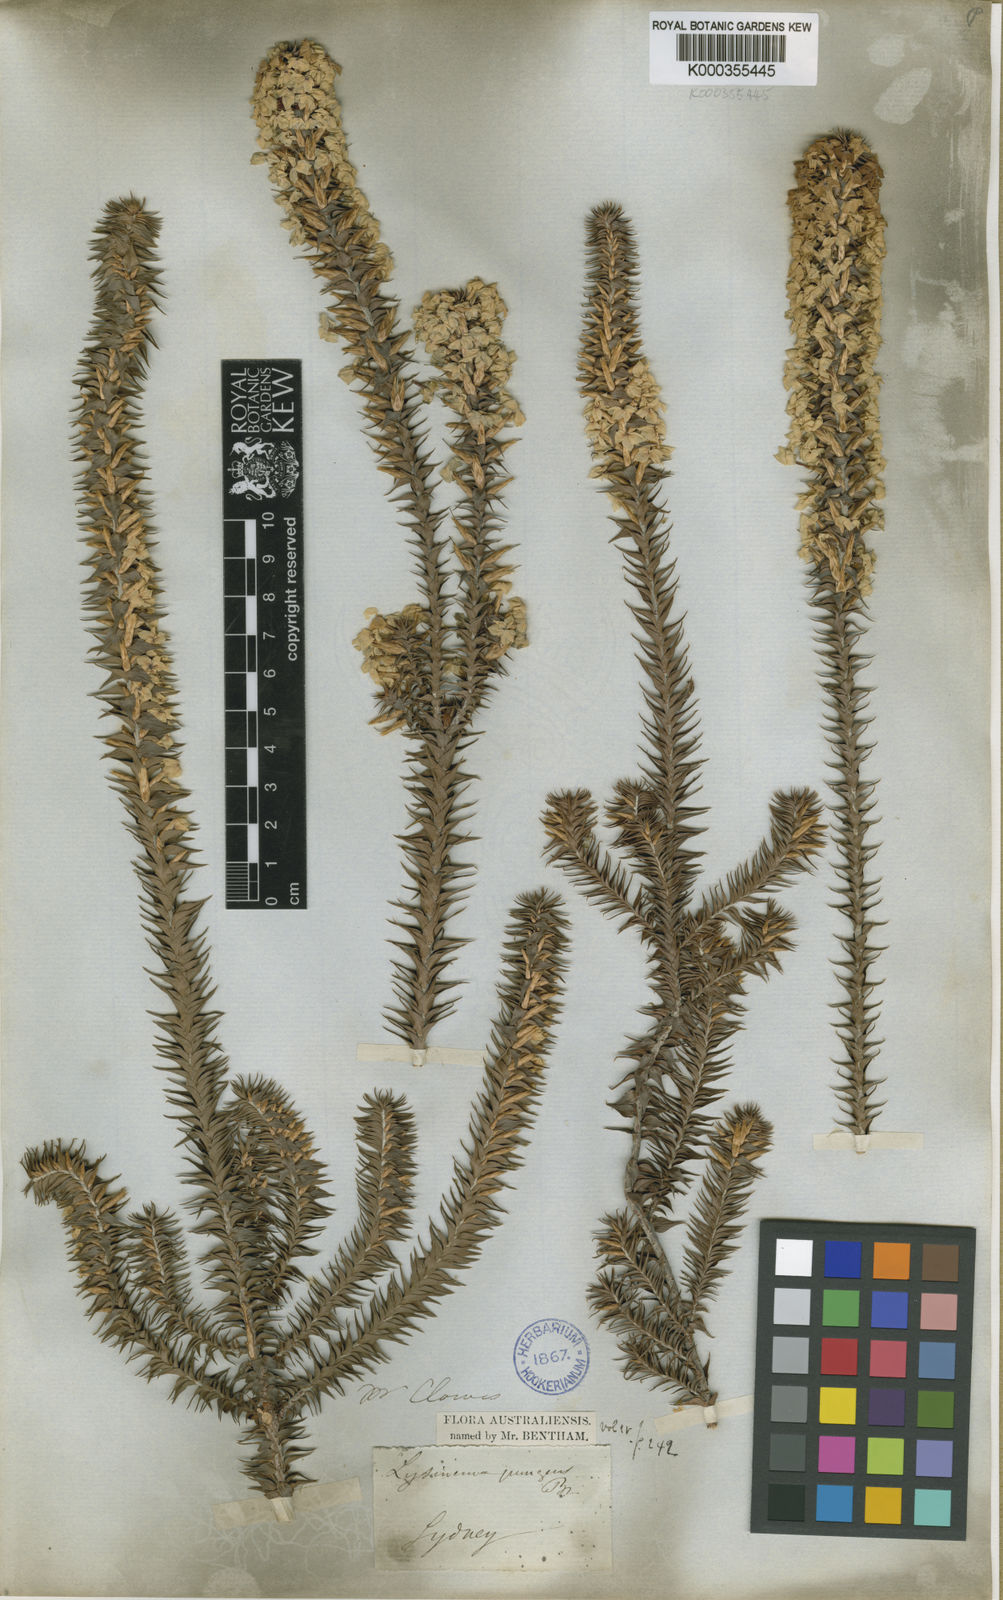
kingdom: Plantae
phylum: Tracheophyta
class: Magnoliopsida
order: Ericales
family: Ericaceae
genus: Woollsia
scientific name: Woollsia pungens
